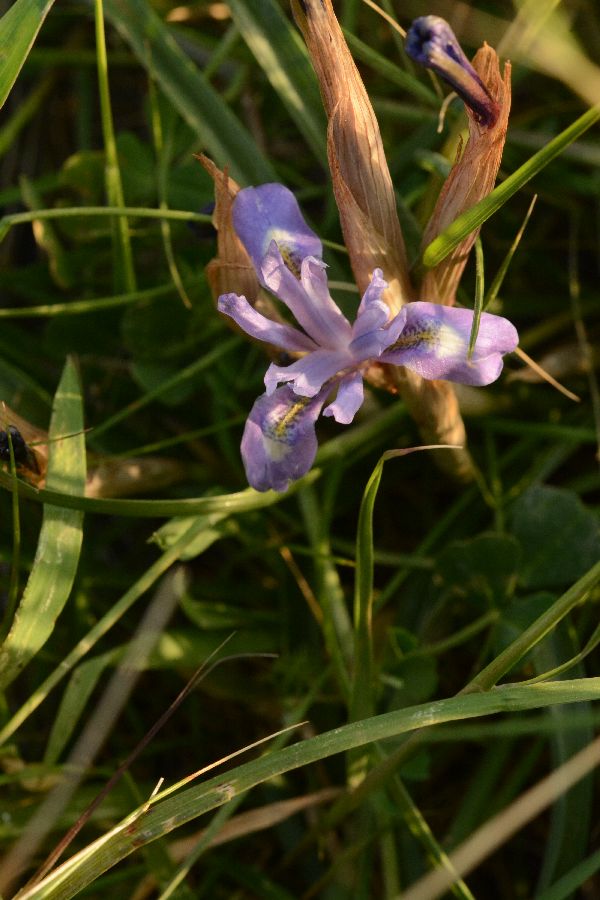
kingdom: Plantae
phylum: Tracheophyta
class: Liliopsida
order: Asparagales
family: Iridaceae
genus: Iris
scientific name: Iris unguicularis
